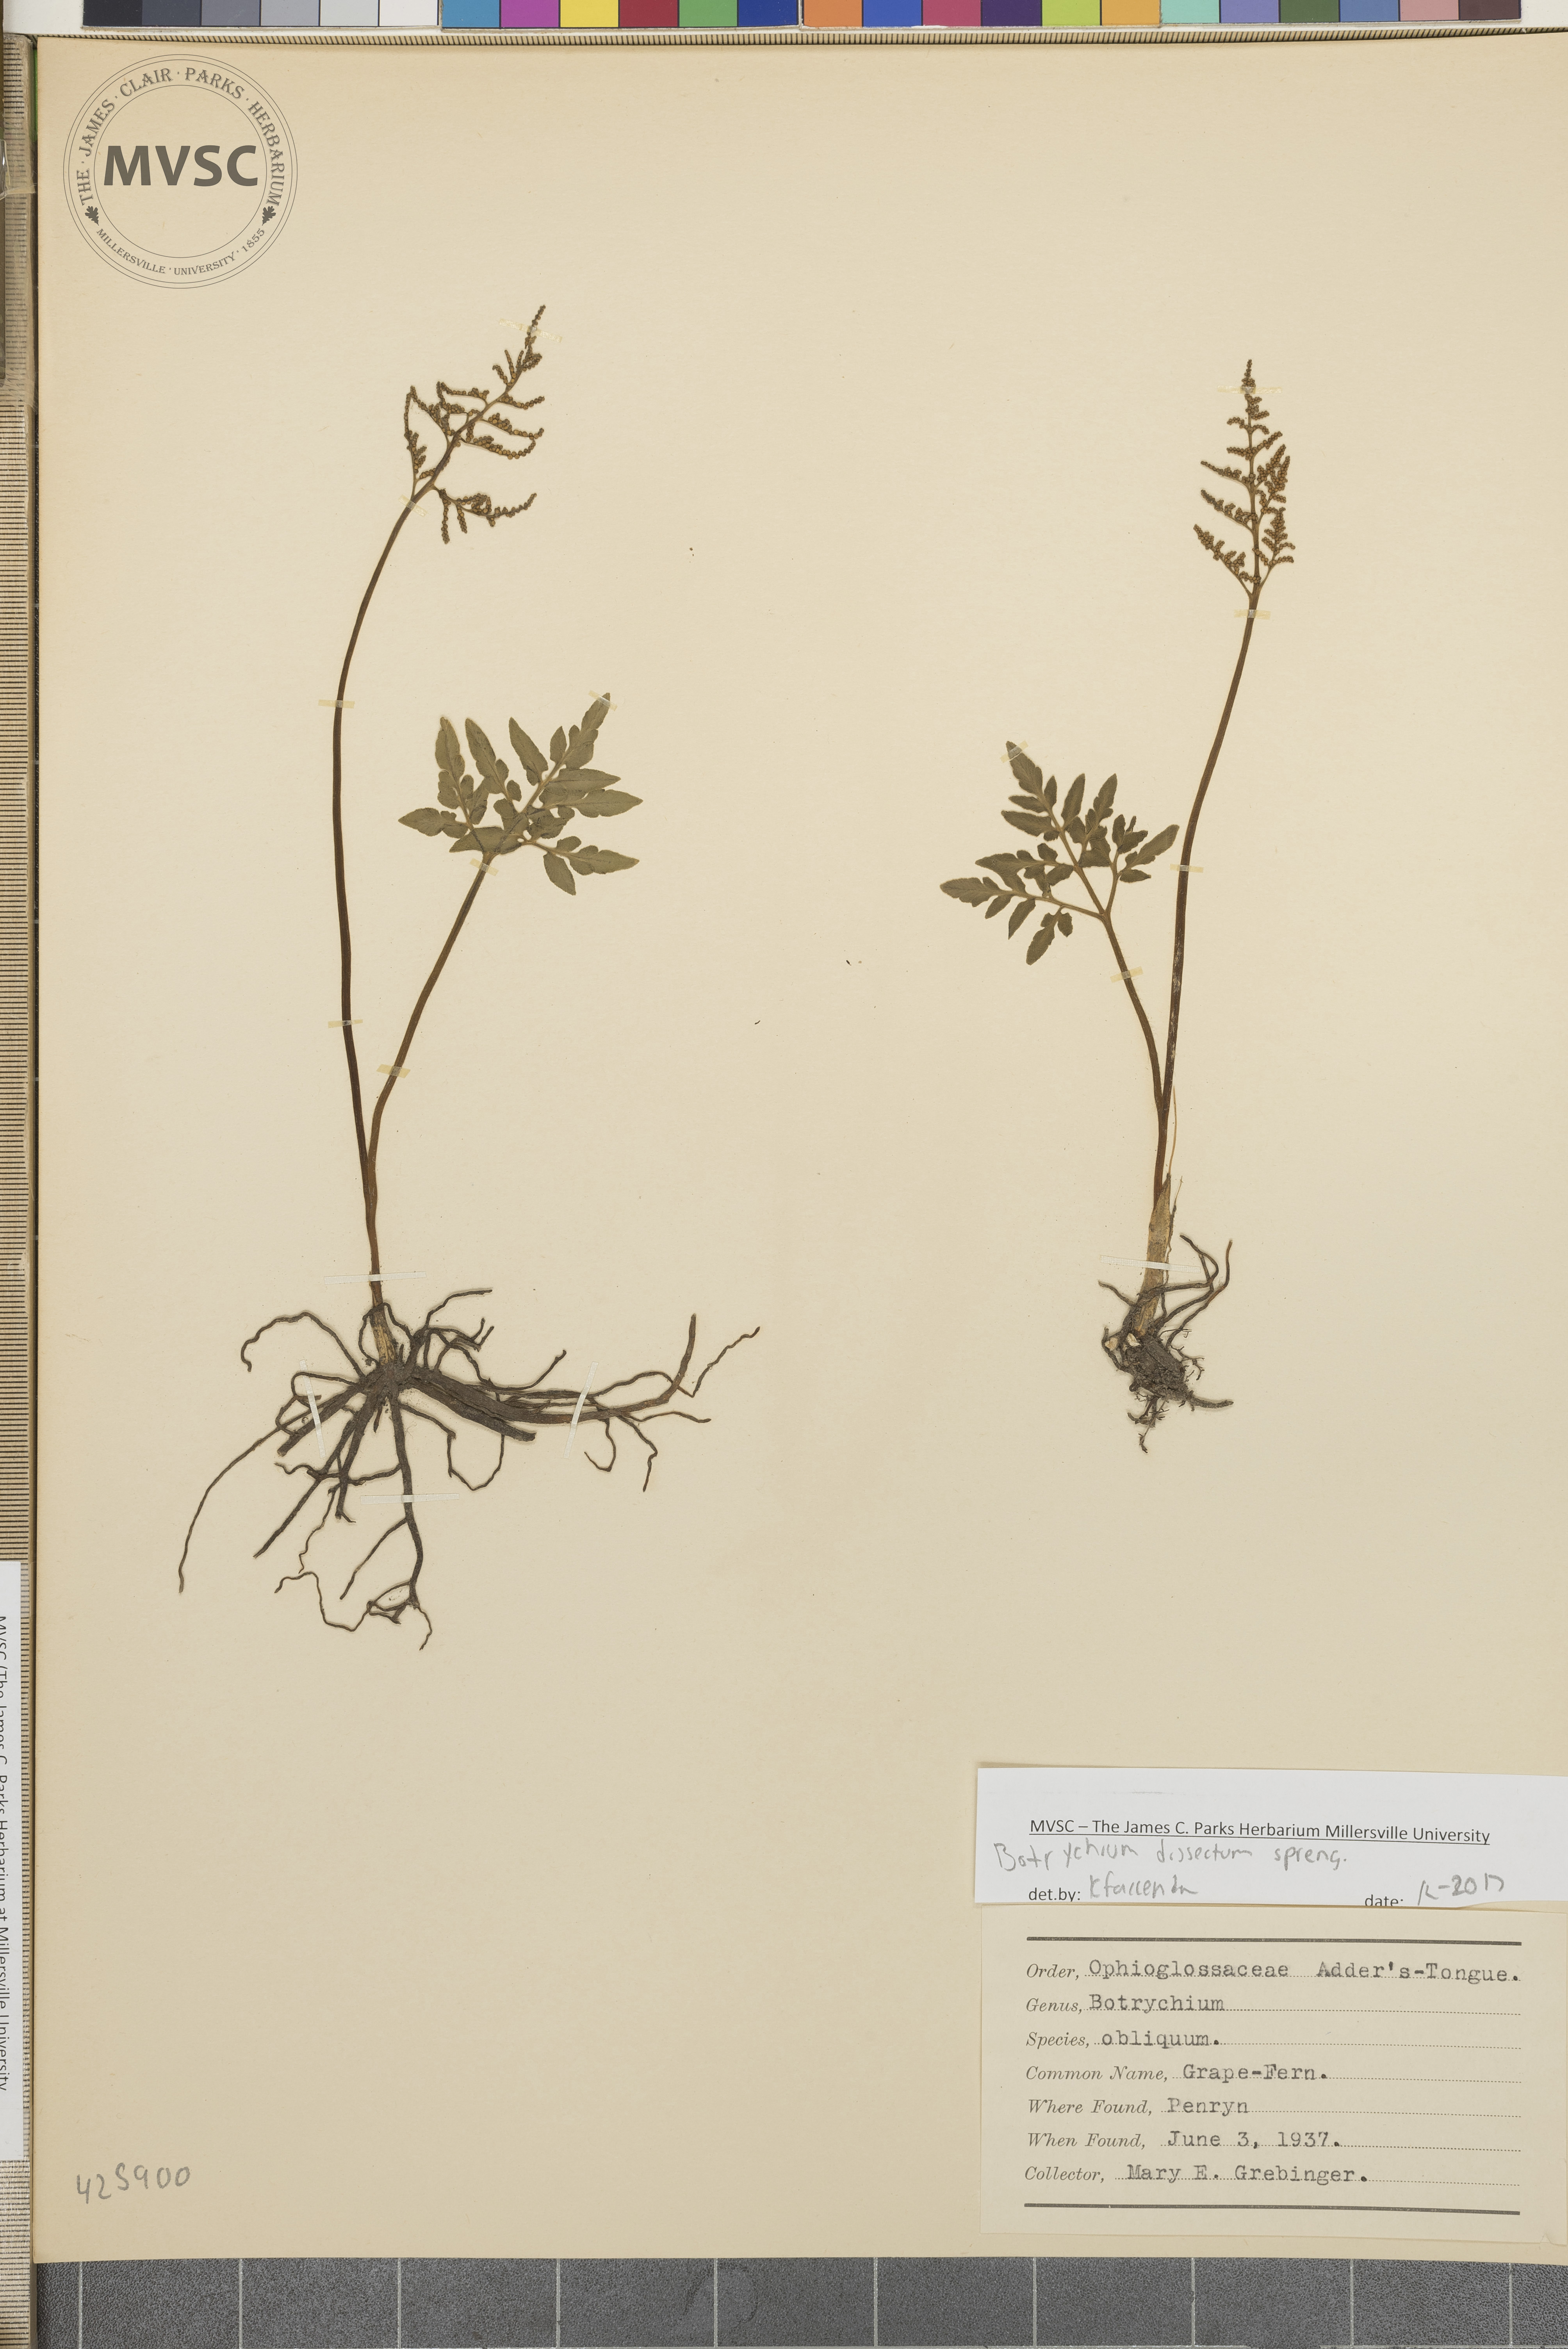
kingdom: Plantae
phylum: Tracheophyta
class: Polypodiopsida
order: Ophioglossales
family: Ophioglossaceae
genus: Sceptridium
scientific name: Sceptridium dissectum
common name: Grape-fern
